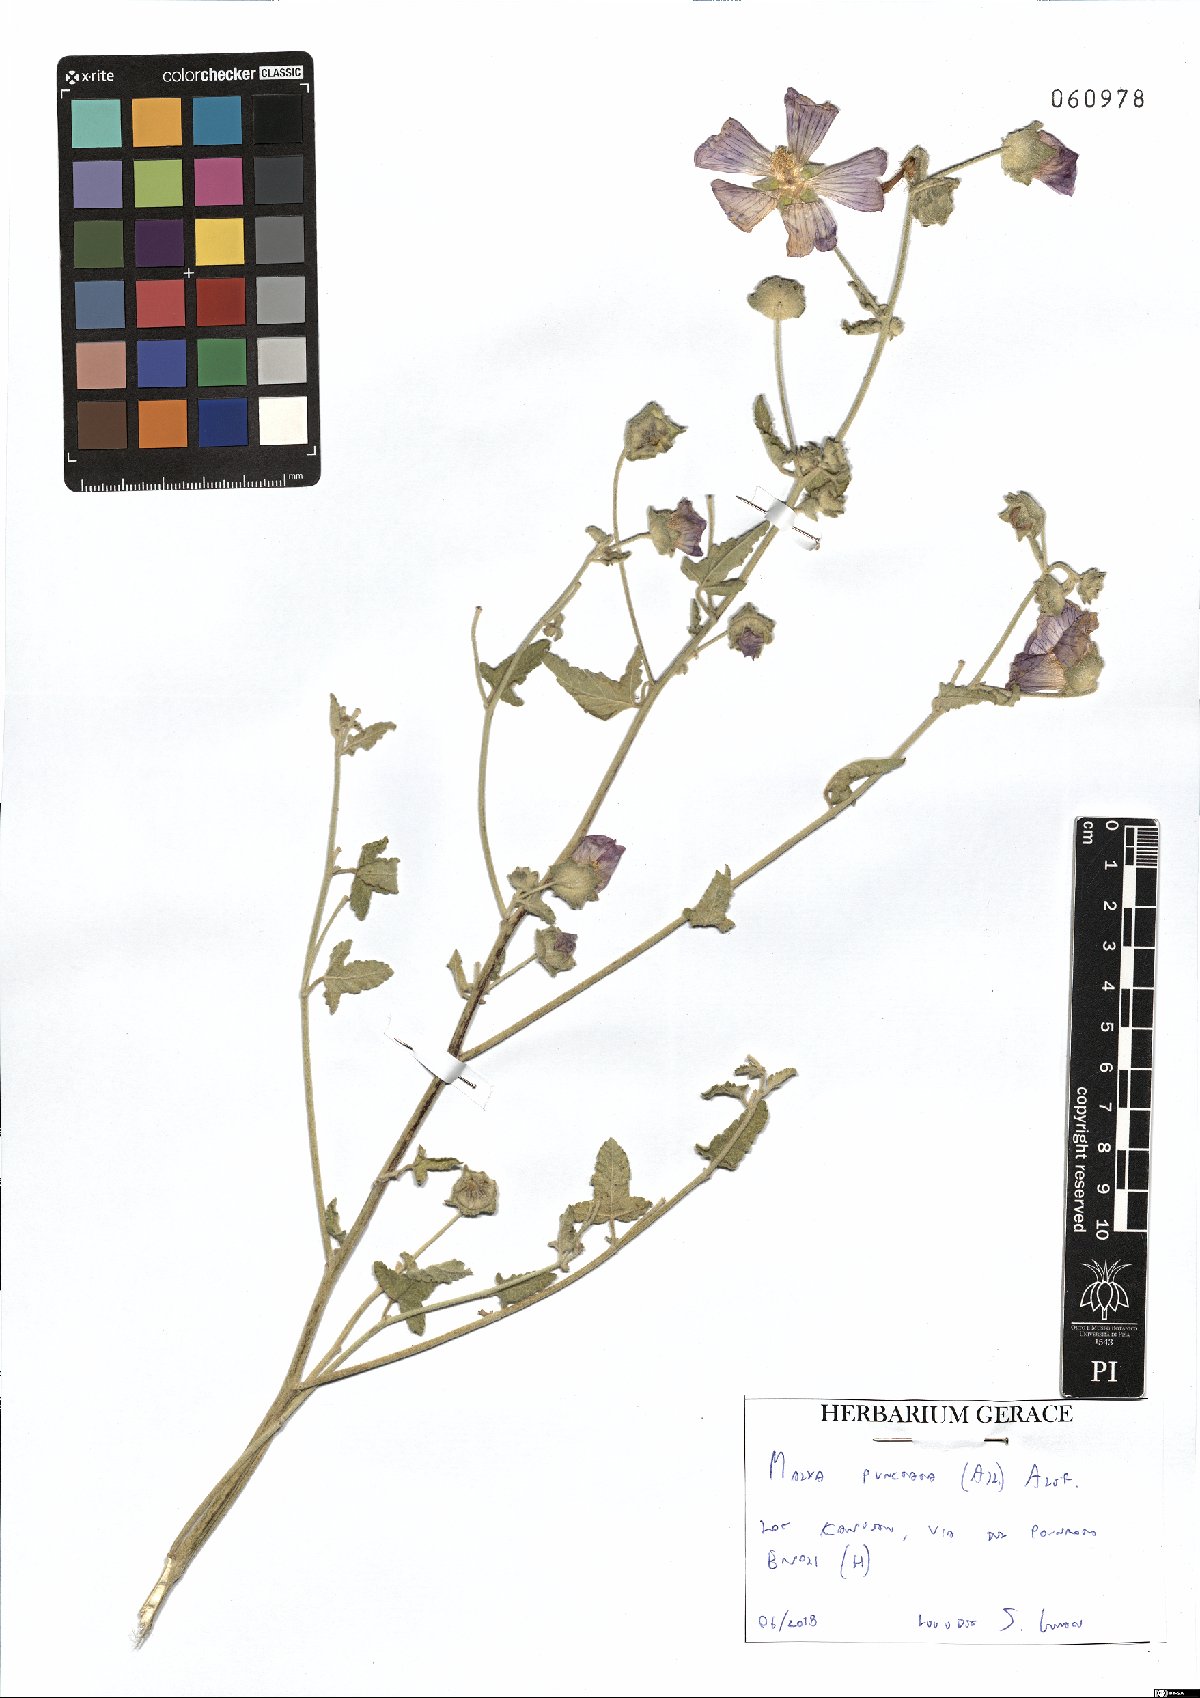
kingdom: Plantae
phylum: Tracheophyta
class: Magnoliopsida
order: Malvales
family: Malvaceae
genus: Malva
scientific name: Malva punctata
